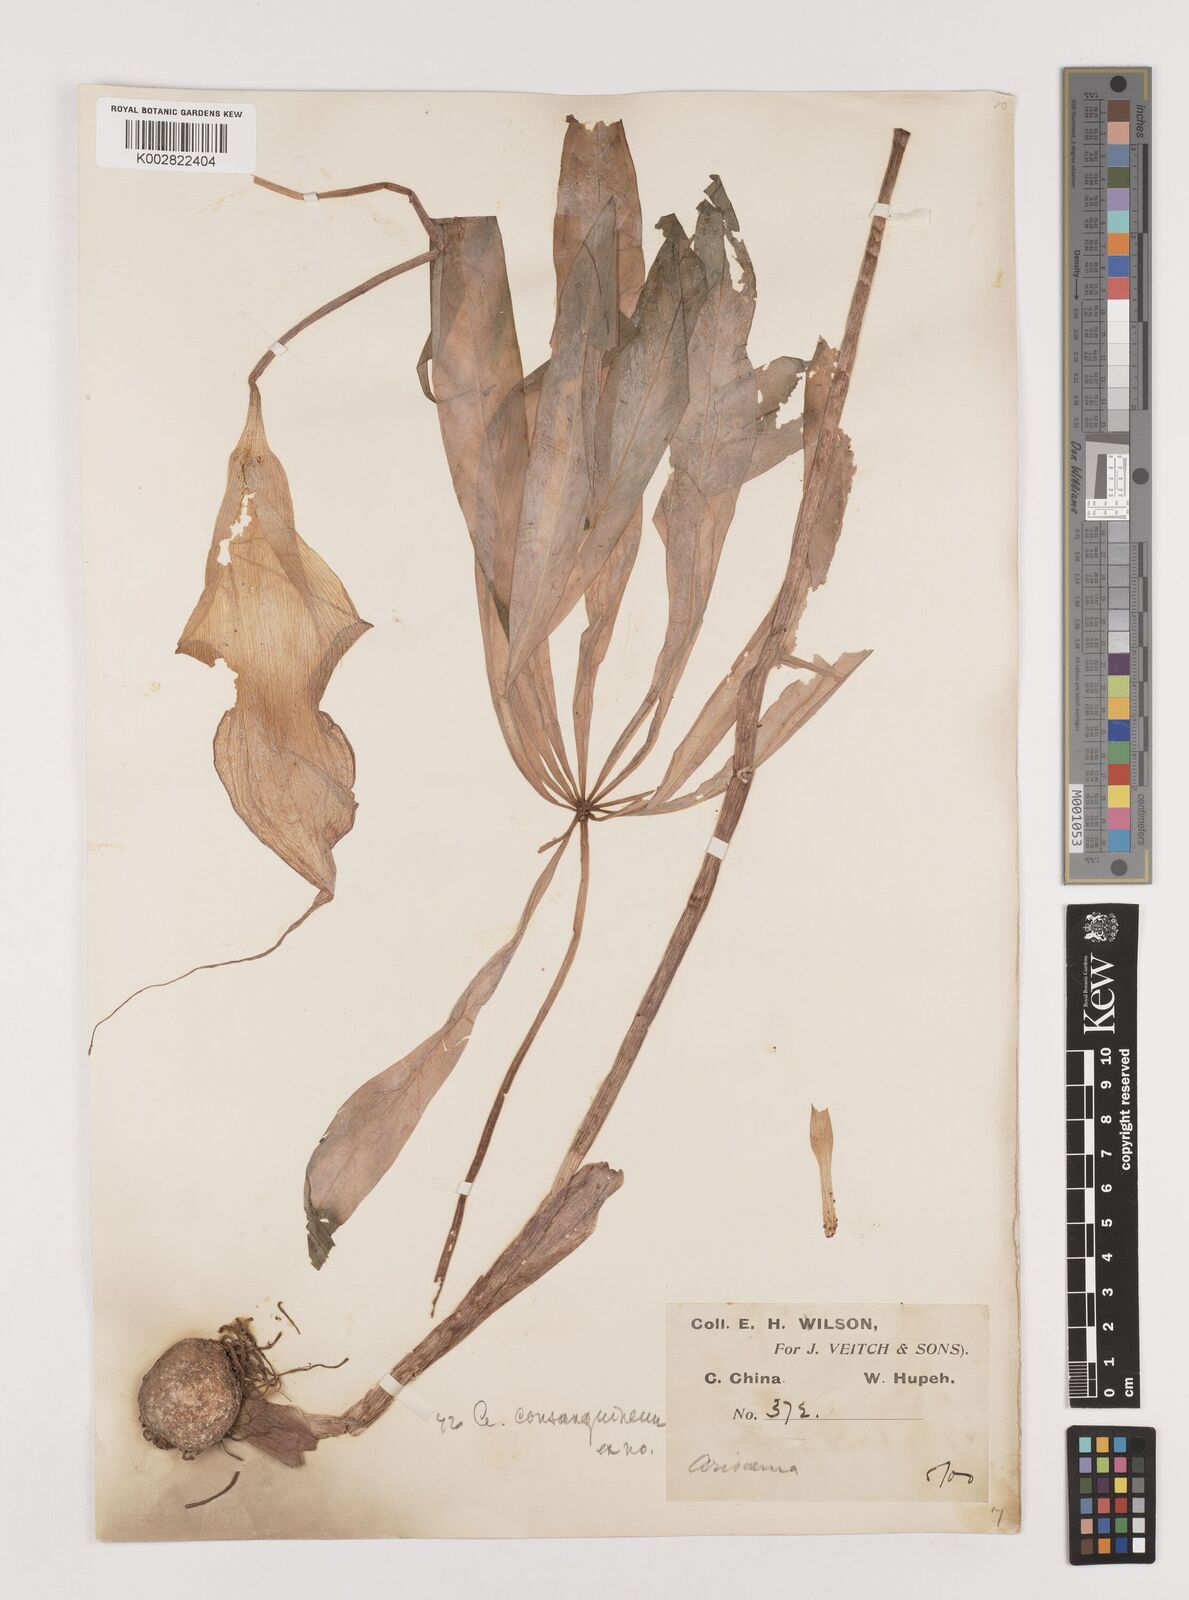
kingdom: Plantae
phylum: Tracheophyta
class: Liliopsida
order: Alismatales
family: Araceae
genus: Arisaema
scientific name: Arisaema erubescens
